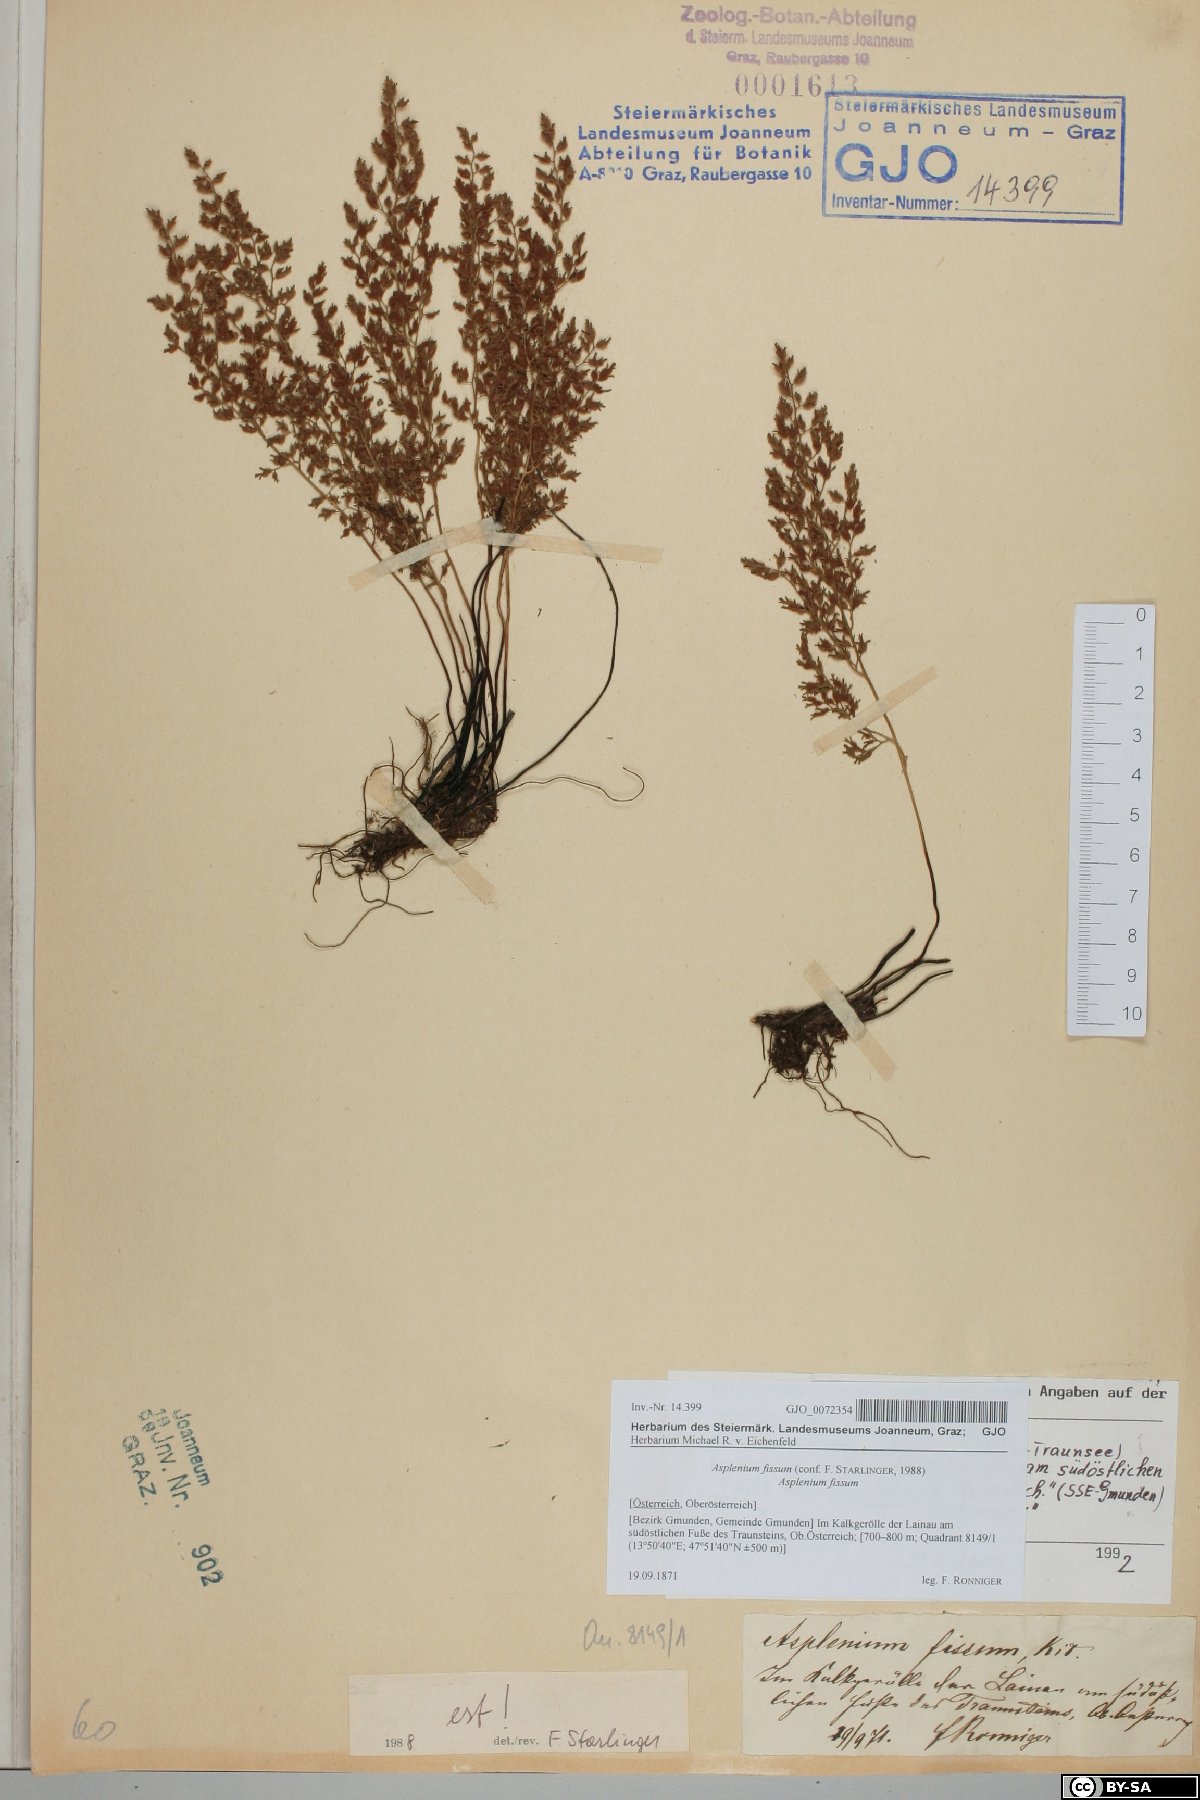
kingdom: Plantae
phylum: Tracheophyta
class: Polypodiopsida
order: Polypodiales
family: Aspleniaceae
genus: Asplenium
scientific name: Asplenium fissum
